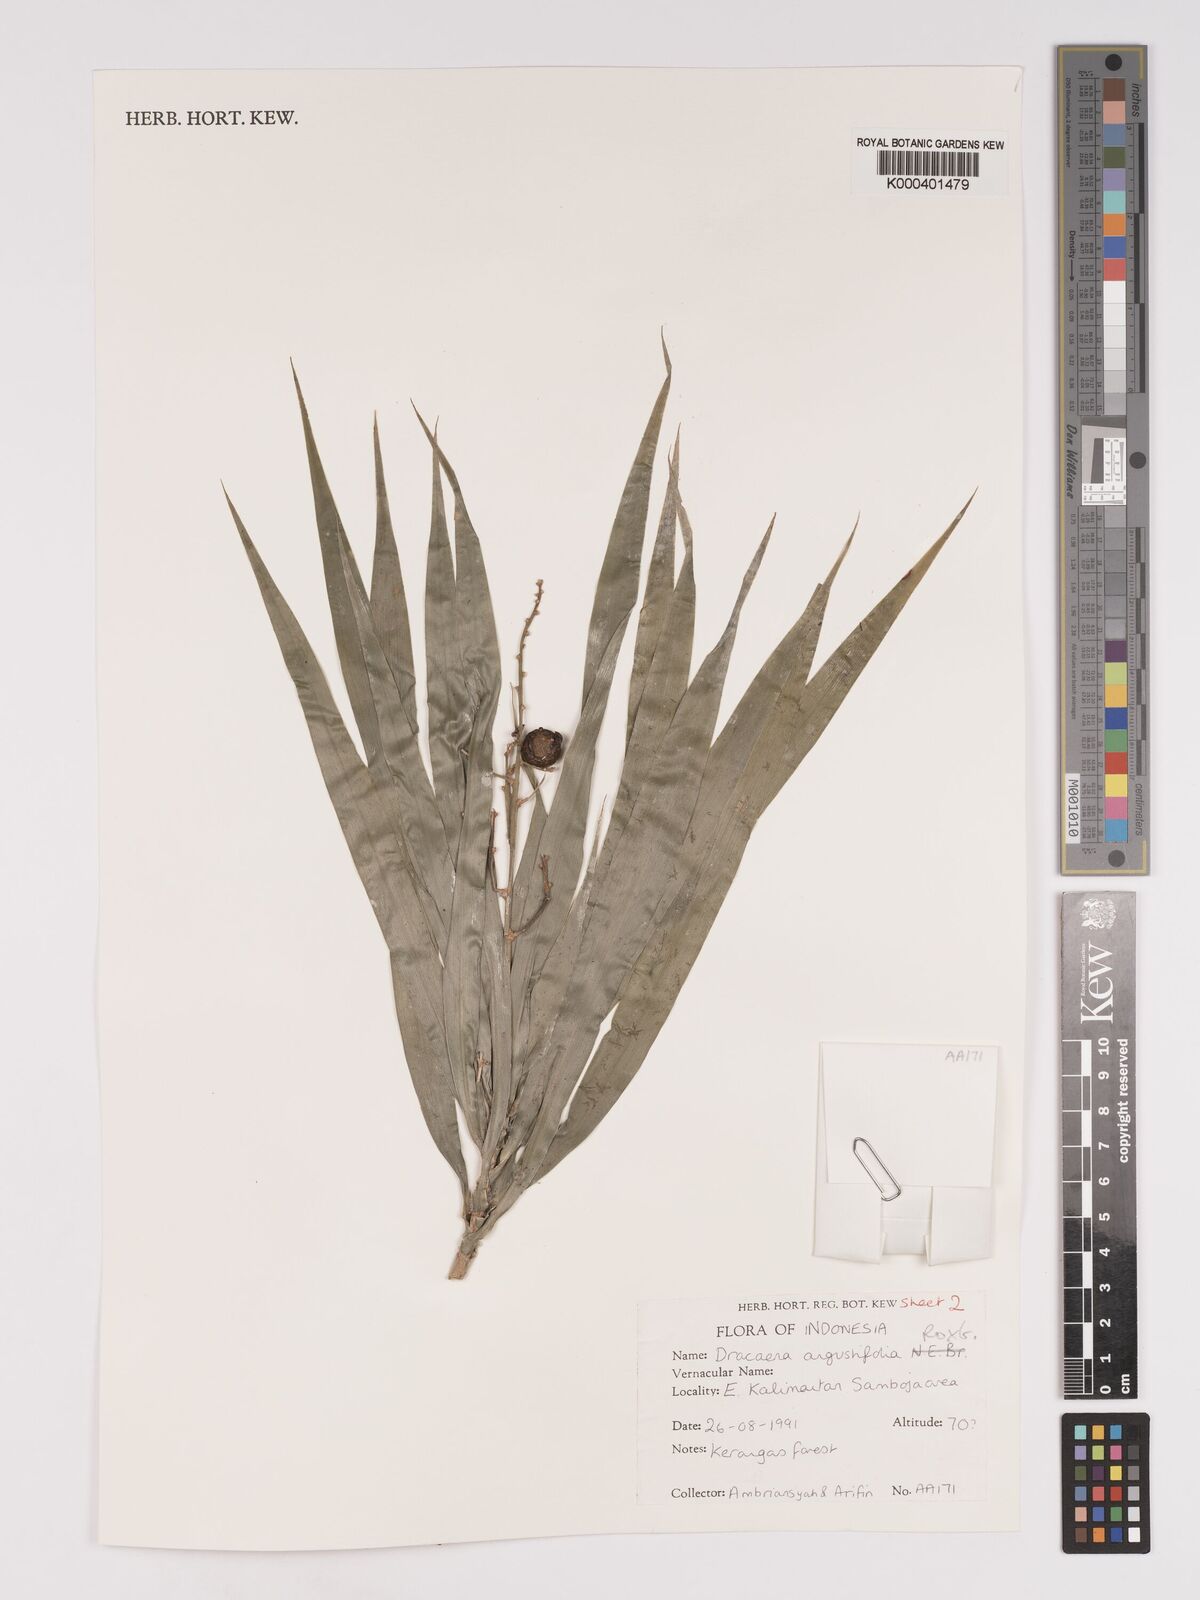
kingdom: Plantae
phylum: Tracheophyta
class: Liliopsida
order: Asparagales
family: Asparagaceae
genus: Dracaena
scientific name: Dracaena angustifolia
